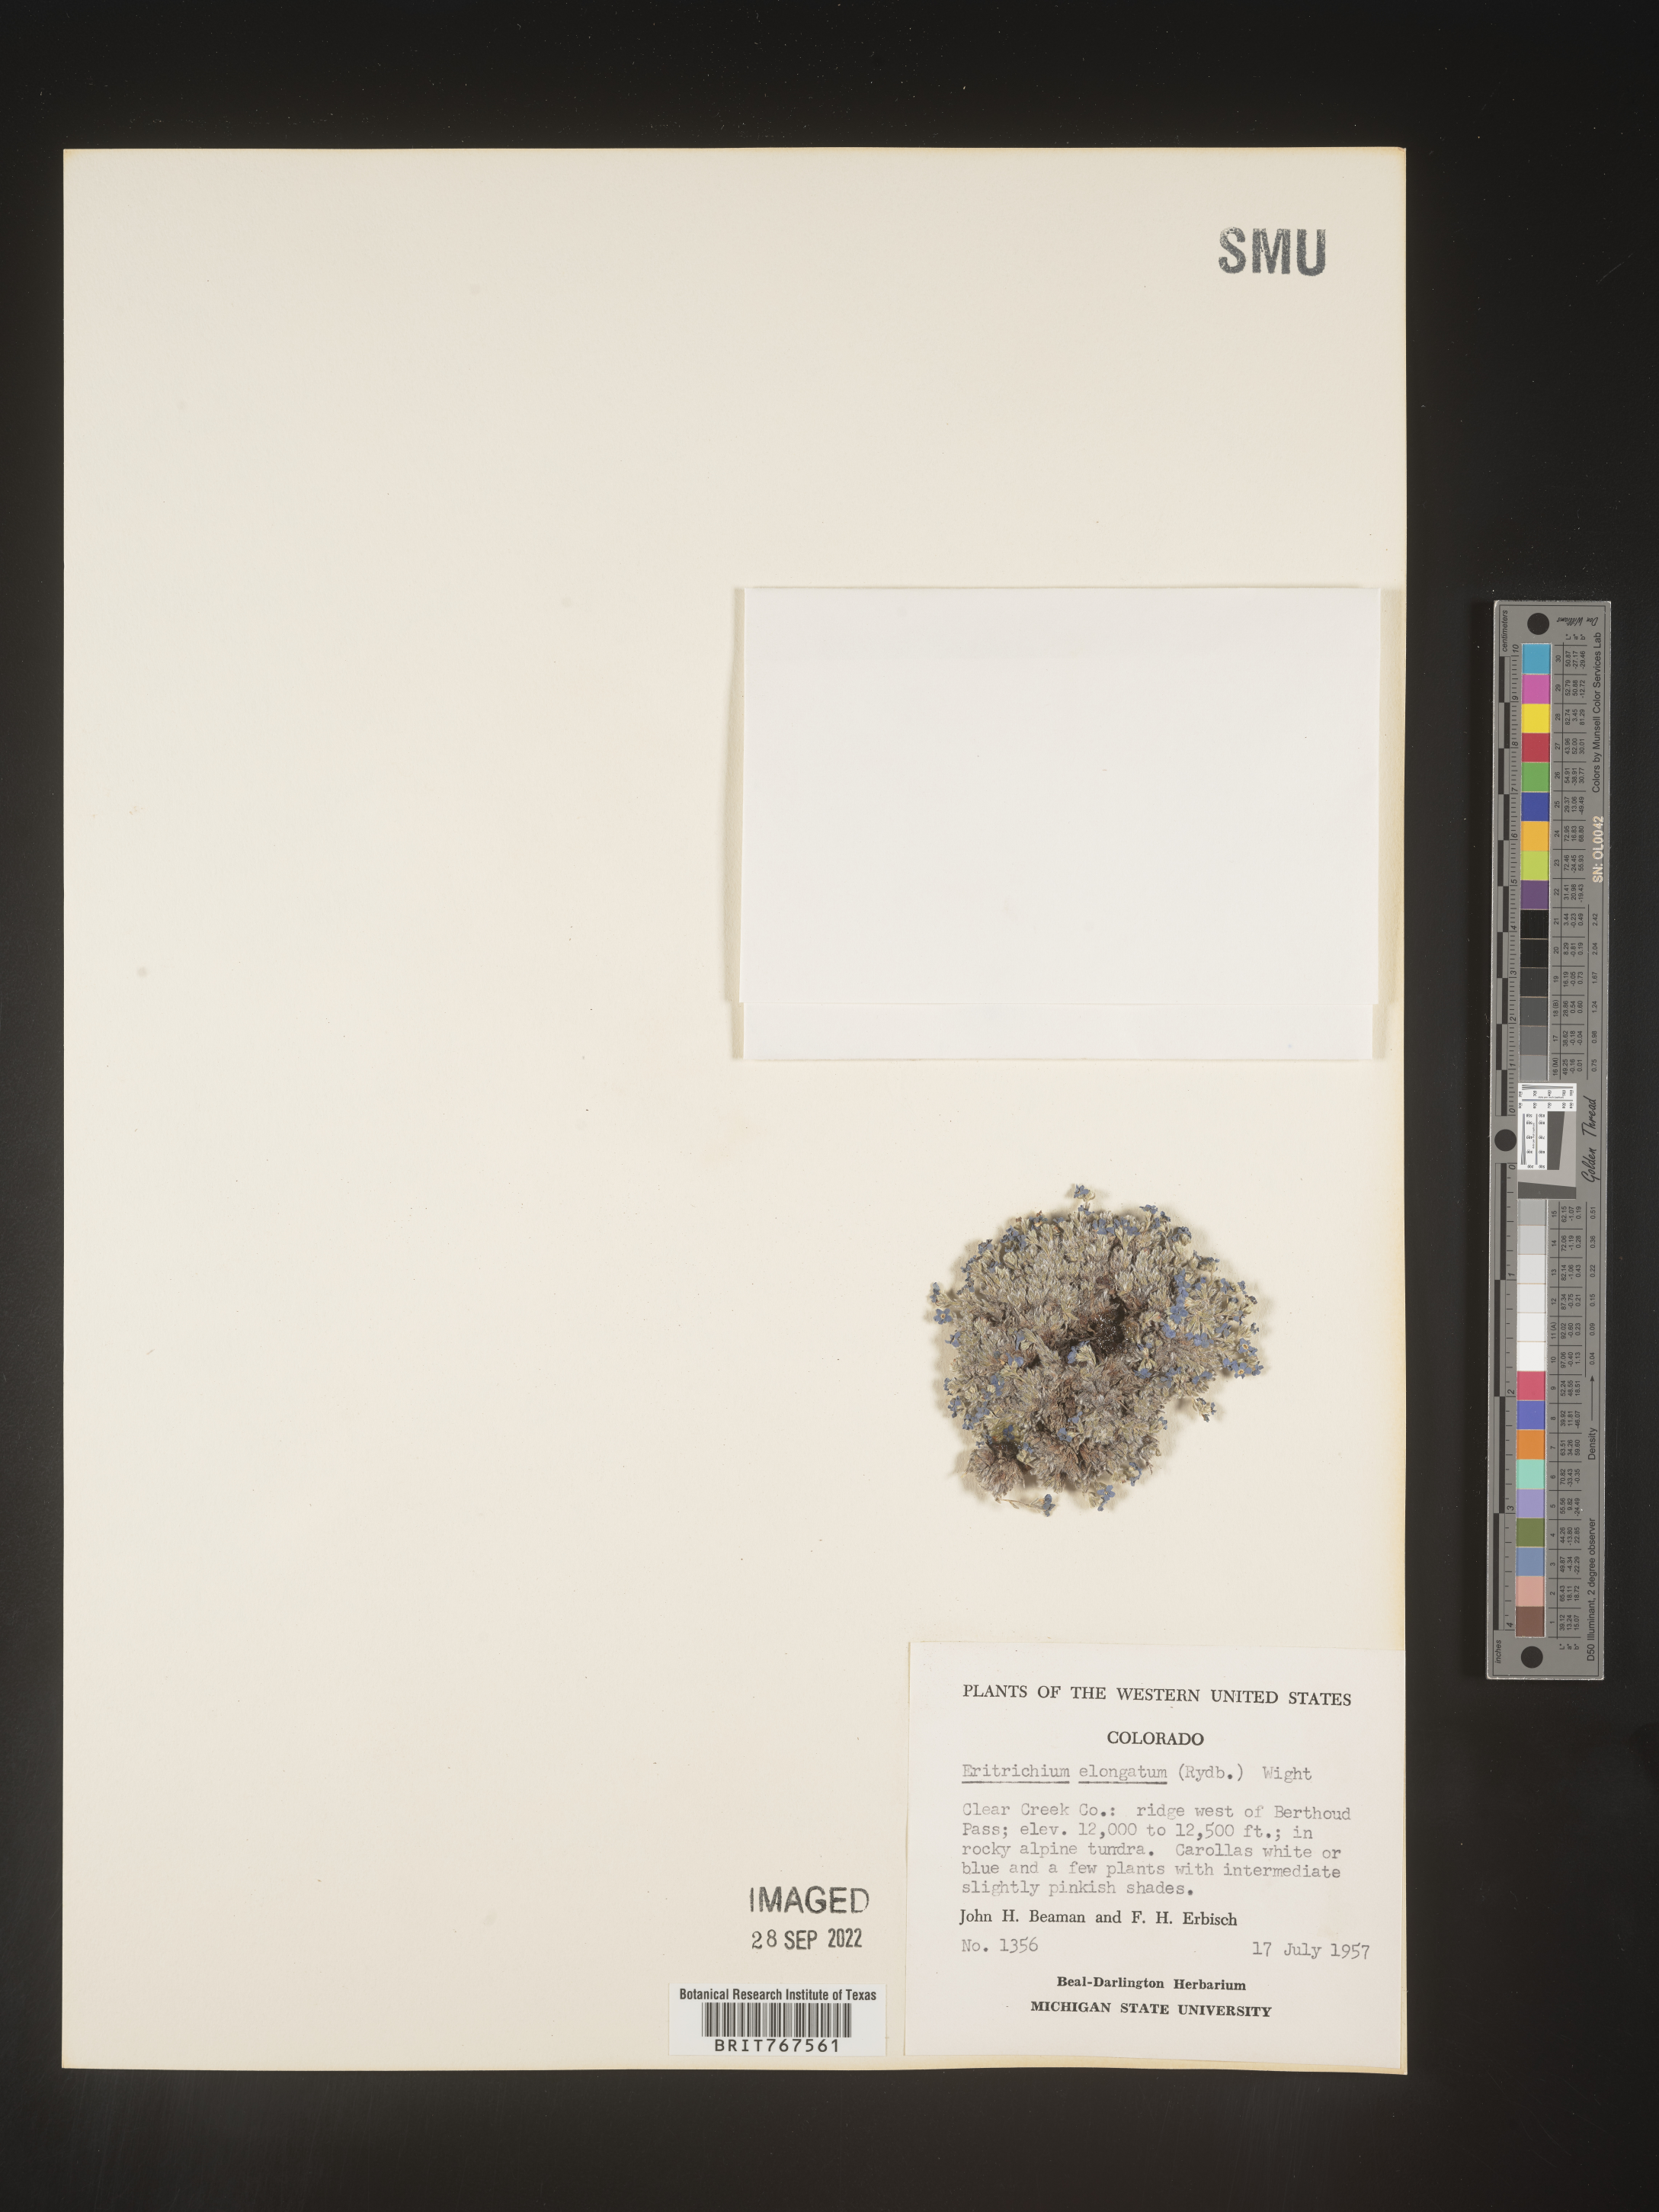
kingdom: Plantae
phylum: Tracheophyta
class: Magnoliopsida
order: Boraginales
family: Boraginaceae
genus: Eritrichium
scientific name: Eritrichium
